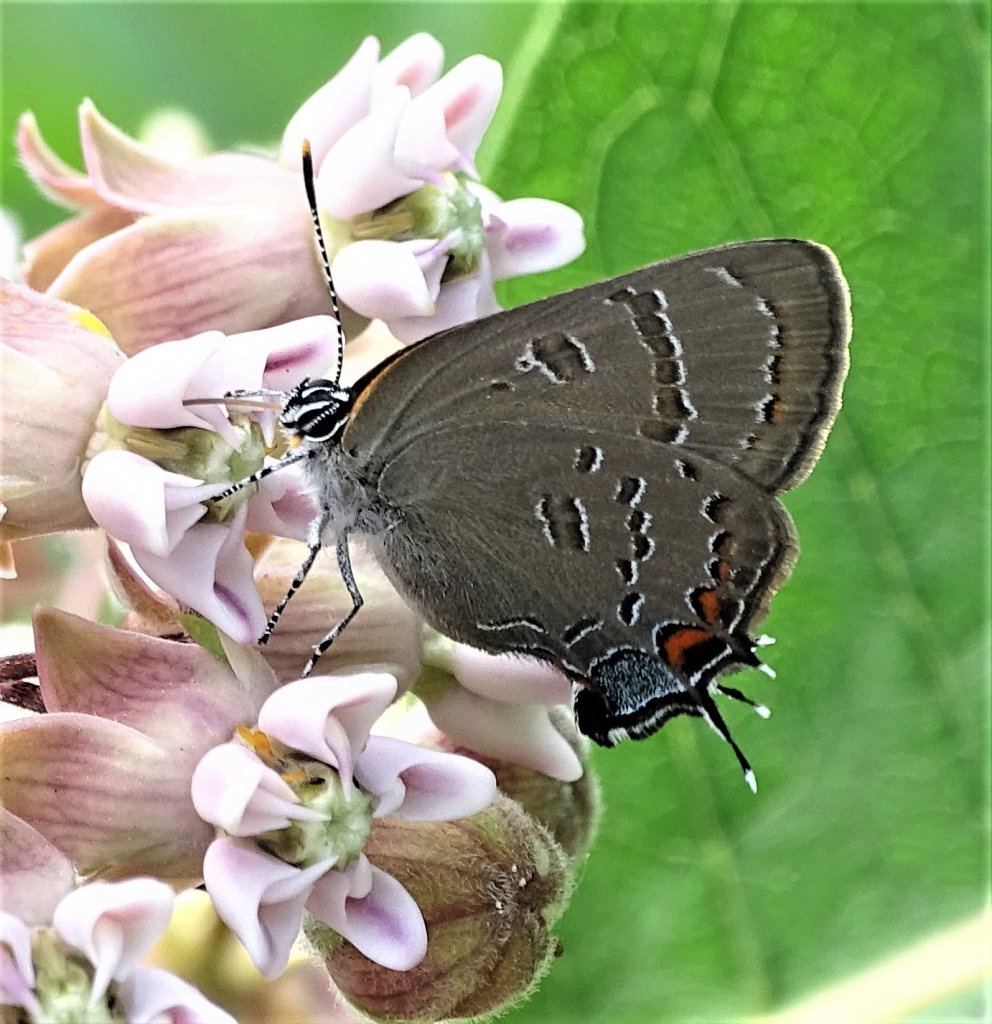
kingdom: Animalia
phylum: Arthropoda
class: Insecta
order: Lepidoptera
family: Lycaenidae
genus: Satyrium
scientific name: Satyrium calanus
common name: Banded Hairstreak
